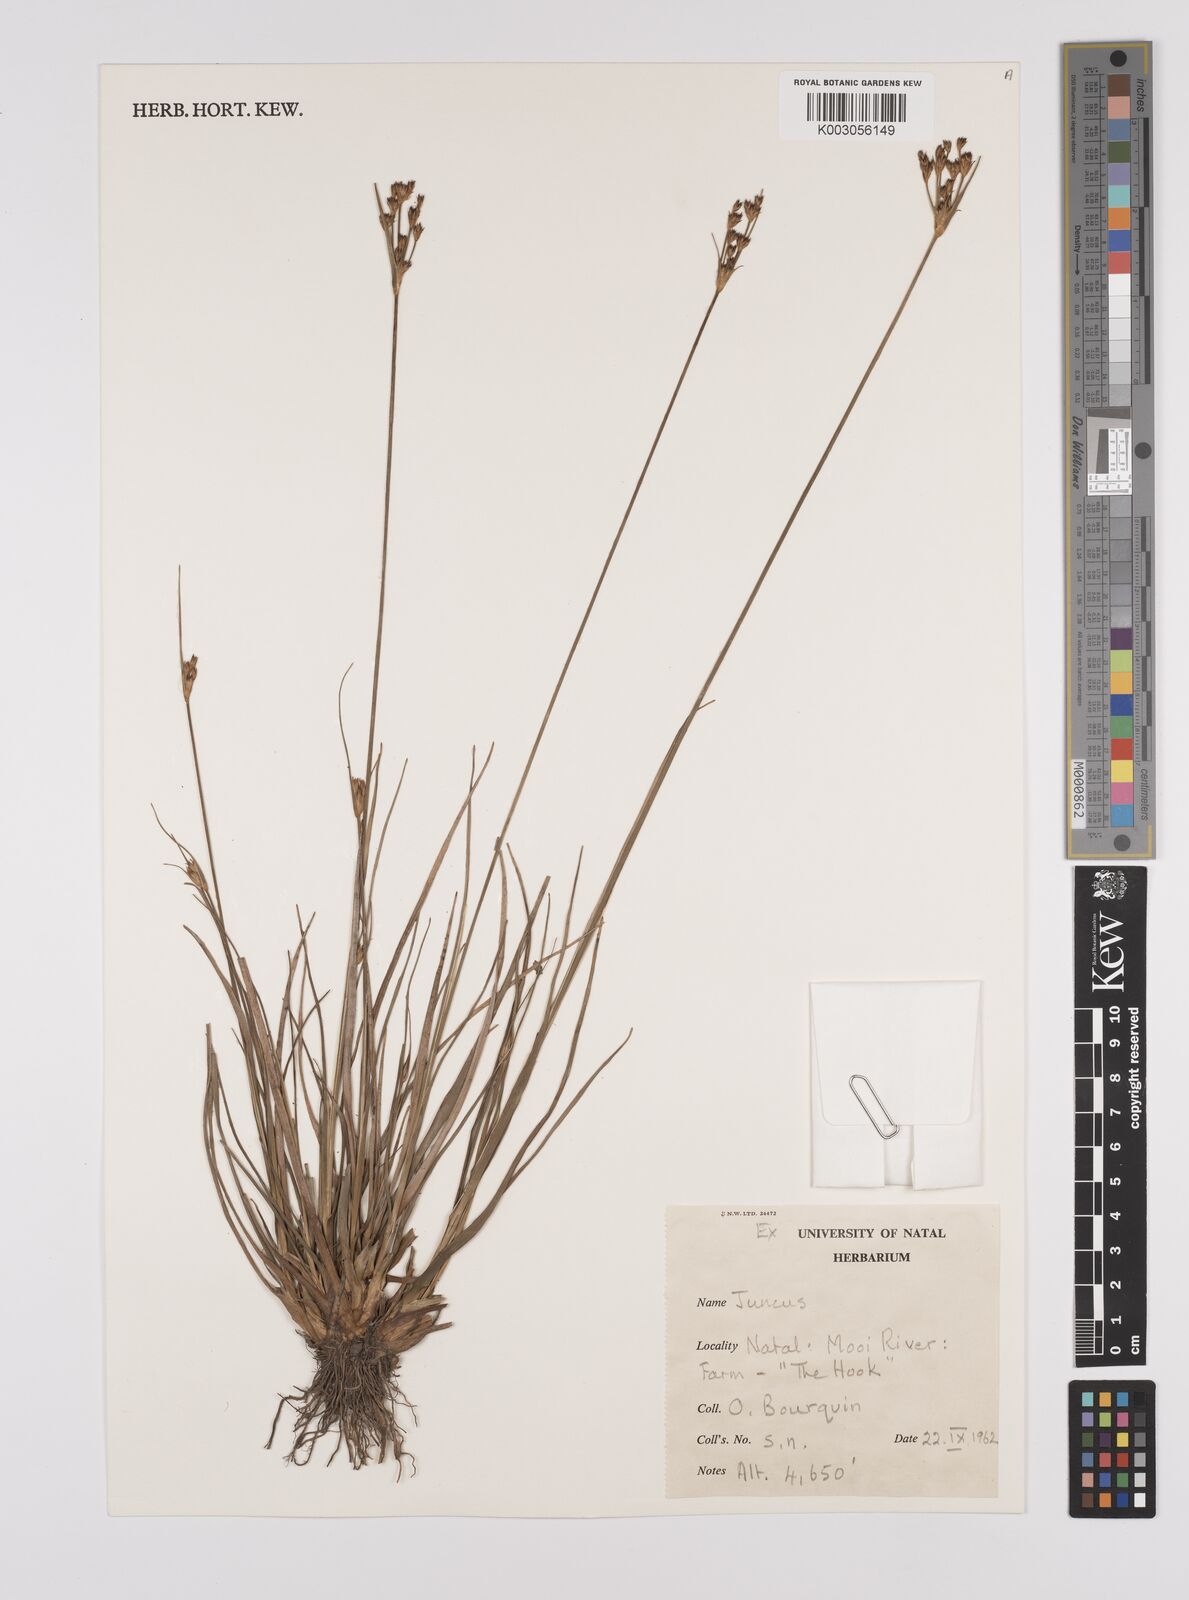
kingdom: Plantae
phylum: Tracheophyta
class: Liliopsida
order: Poales
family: Juncaceae
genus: Juncus
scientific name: Juncus
